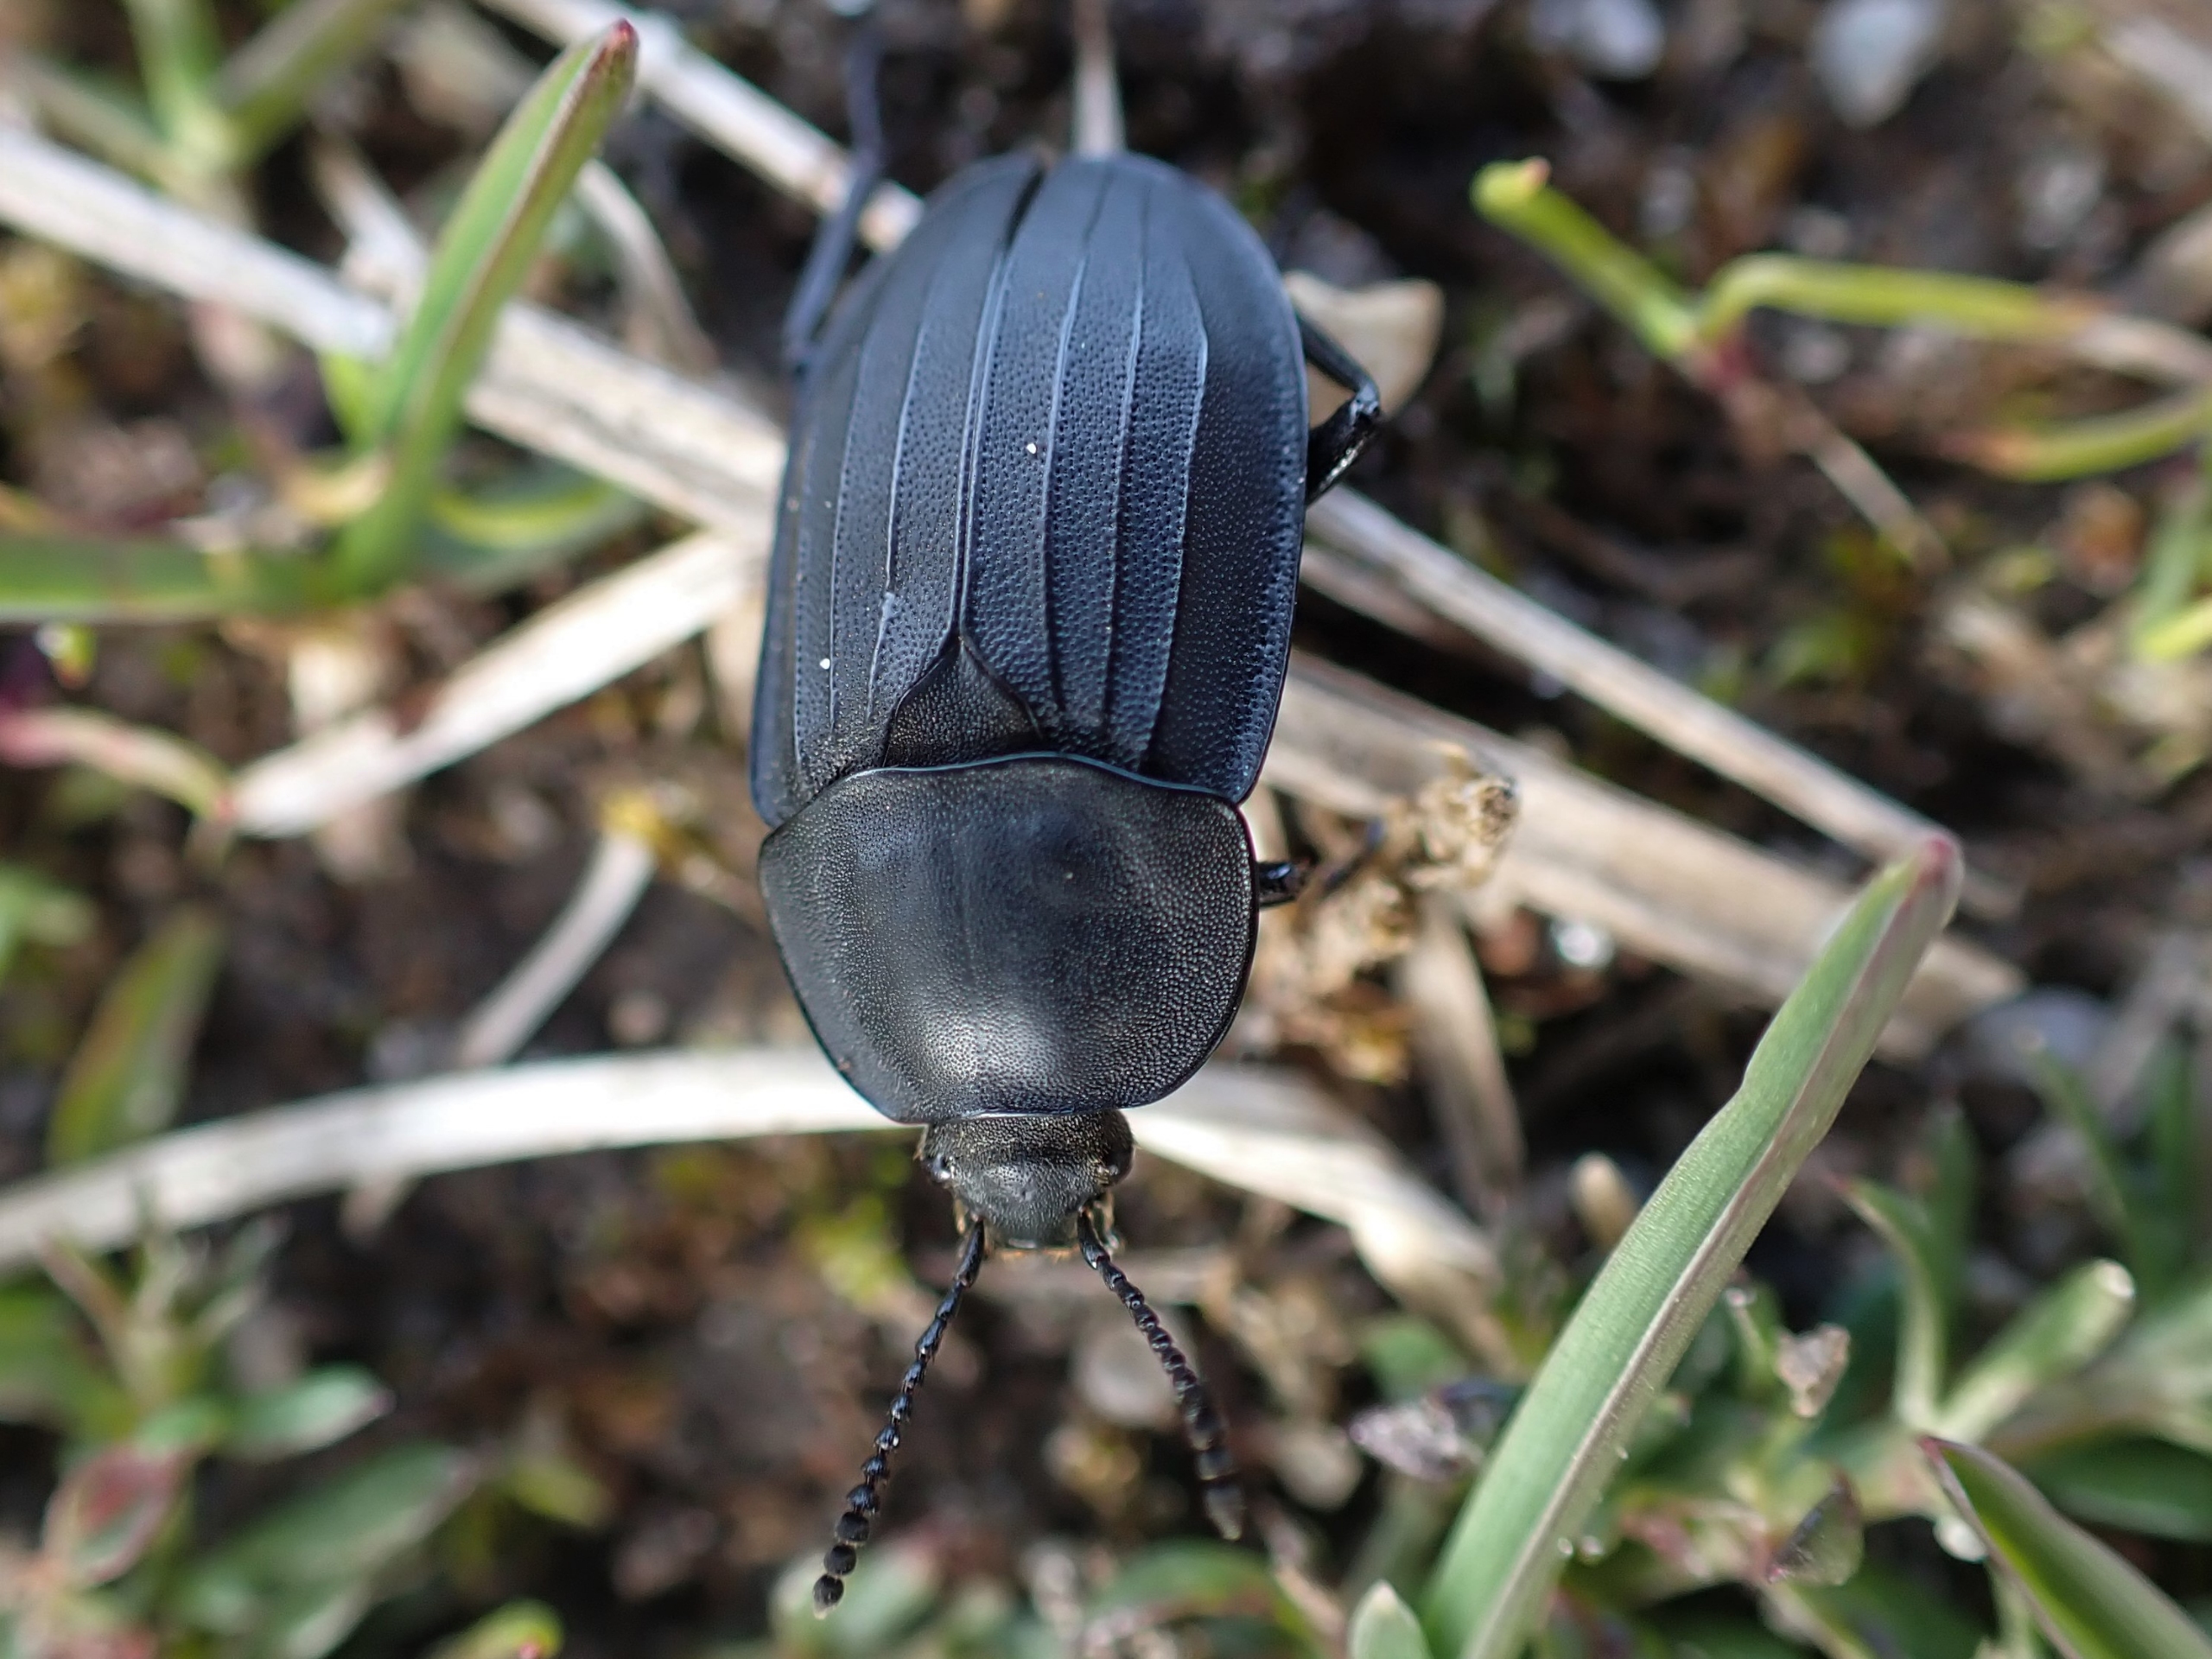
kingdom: Animalia
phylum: Arthropoda
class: Insecta
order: Coleoptera
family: Staphylinidae
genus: Silpha
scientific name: Silpha tristis
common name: Kornet ådselbille
